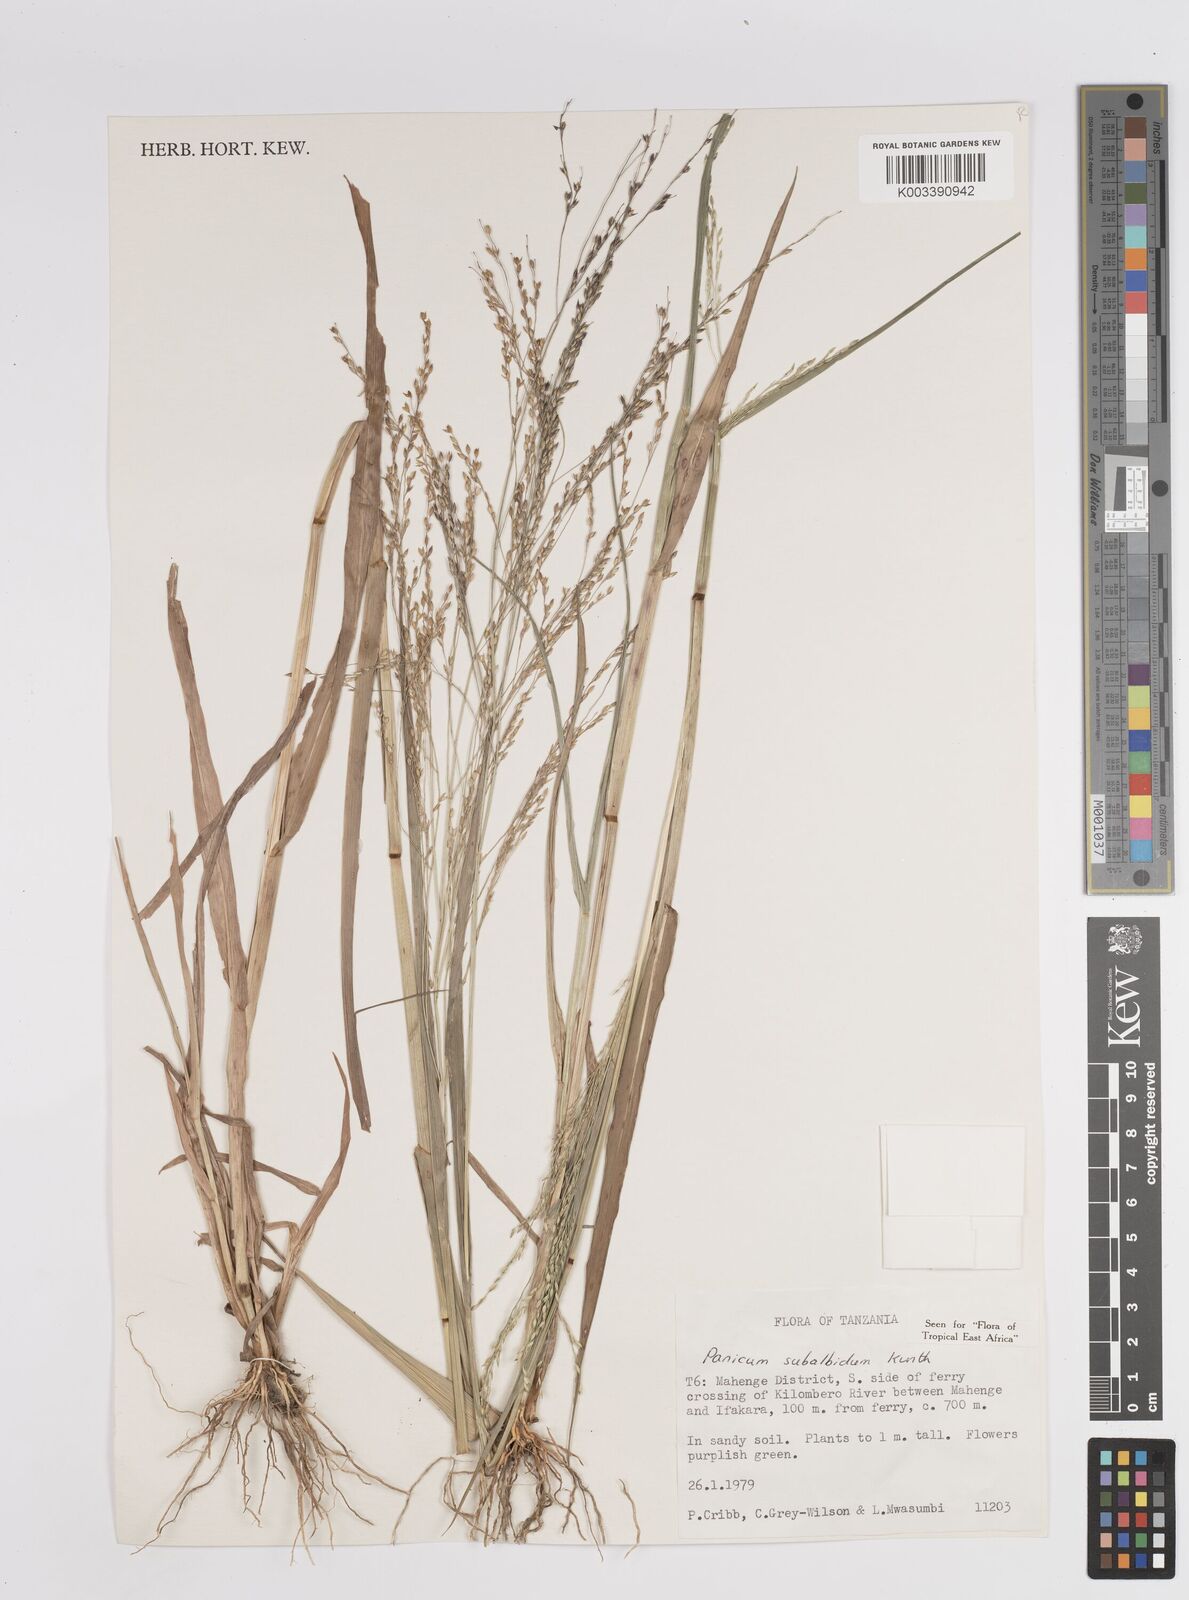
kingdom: Plantae
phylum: Tracheophyta
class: Liliopsida
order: Poales
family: Poaceae
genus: Panicum
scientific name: Panicum subalbidum
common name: Elbow buffalo grass
